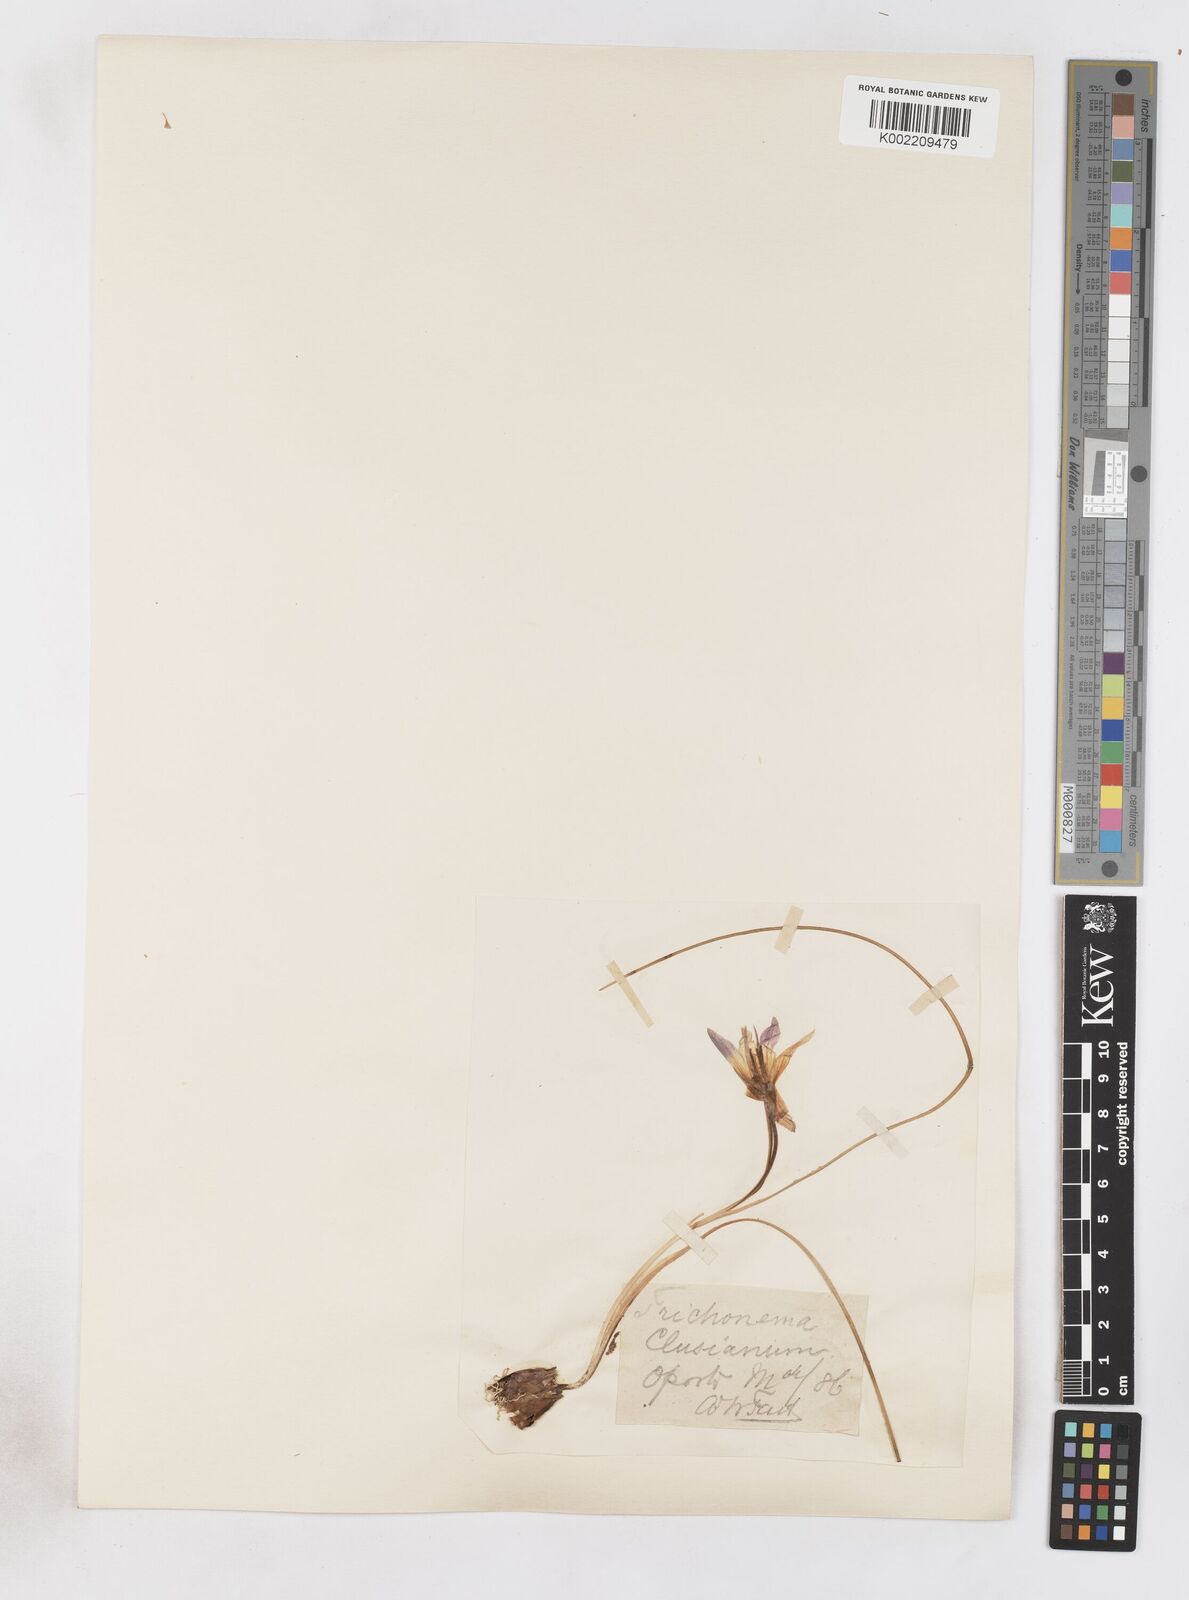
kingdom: Plantae
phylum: Tracheophyta
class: Liliopsida
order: Asparagales
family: Iridaceae
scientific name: Iridaceae
